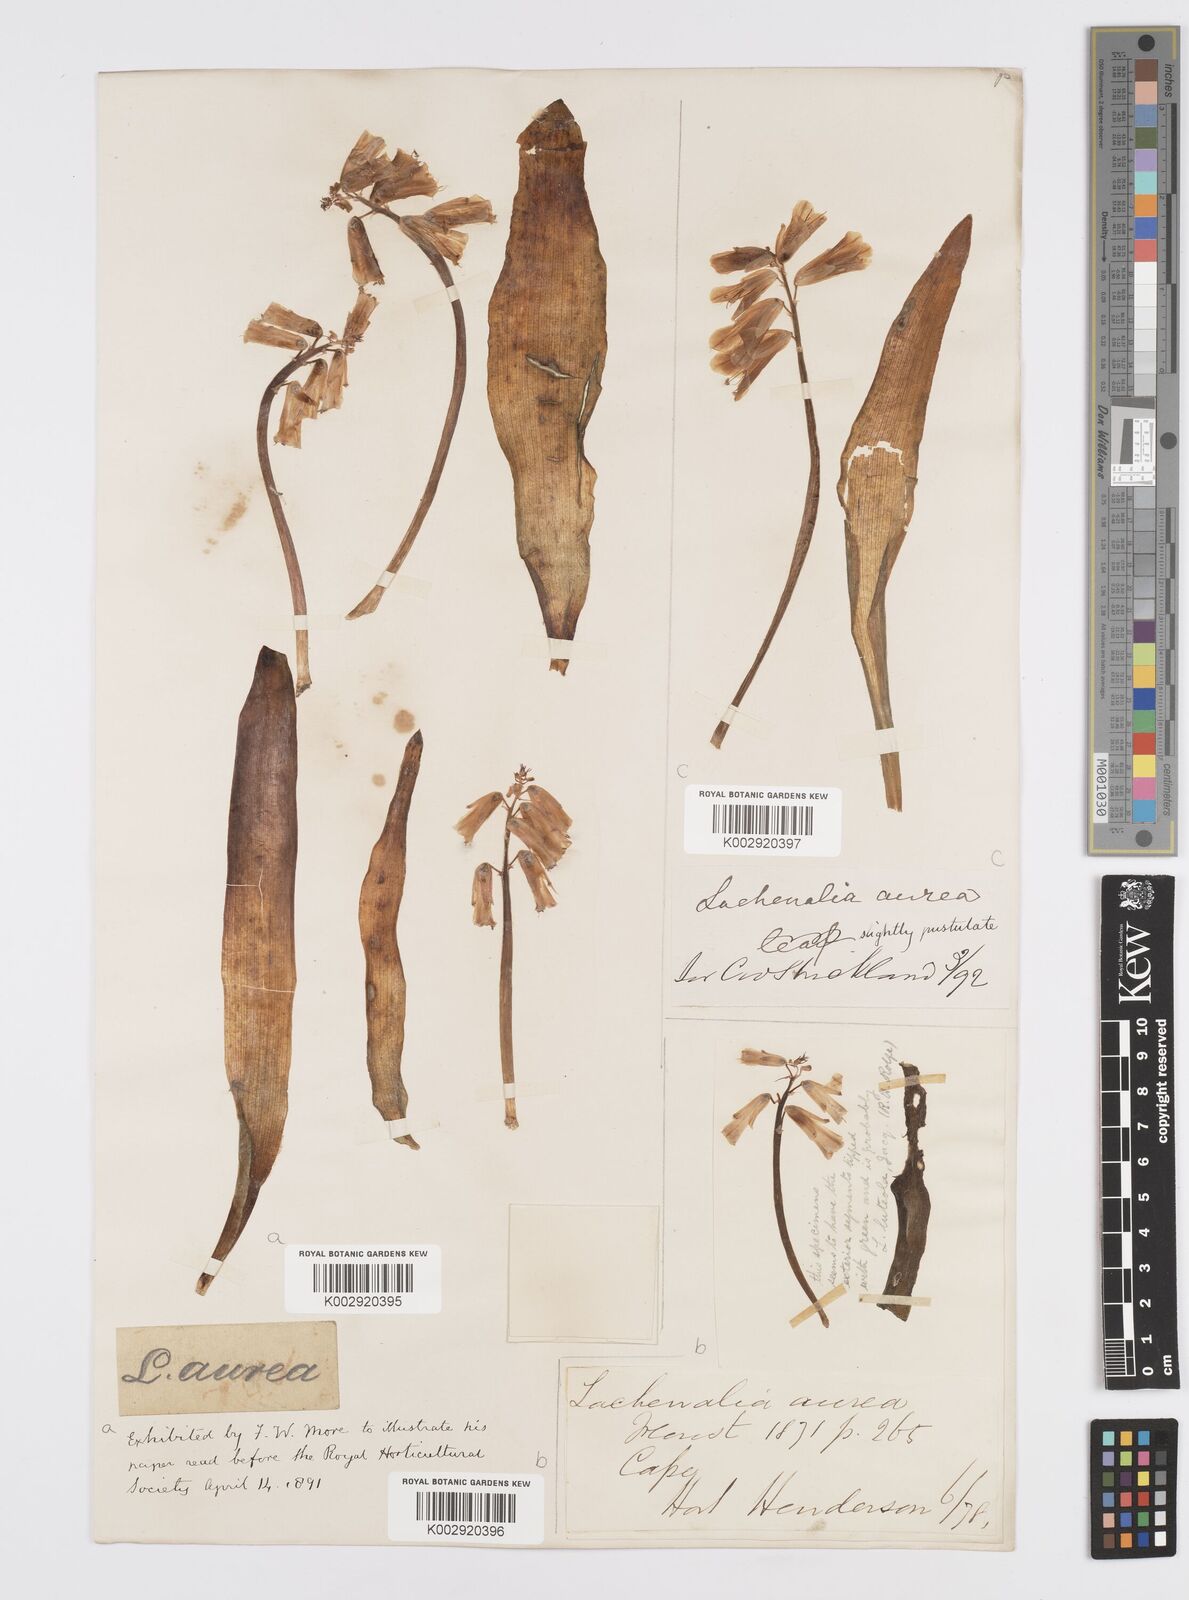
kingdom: Plantae
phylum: Tracheophyta
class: Liliopsida
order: Asparagales
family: Asparagaceae
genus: Lachenalia
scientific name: Lachenalia
